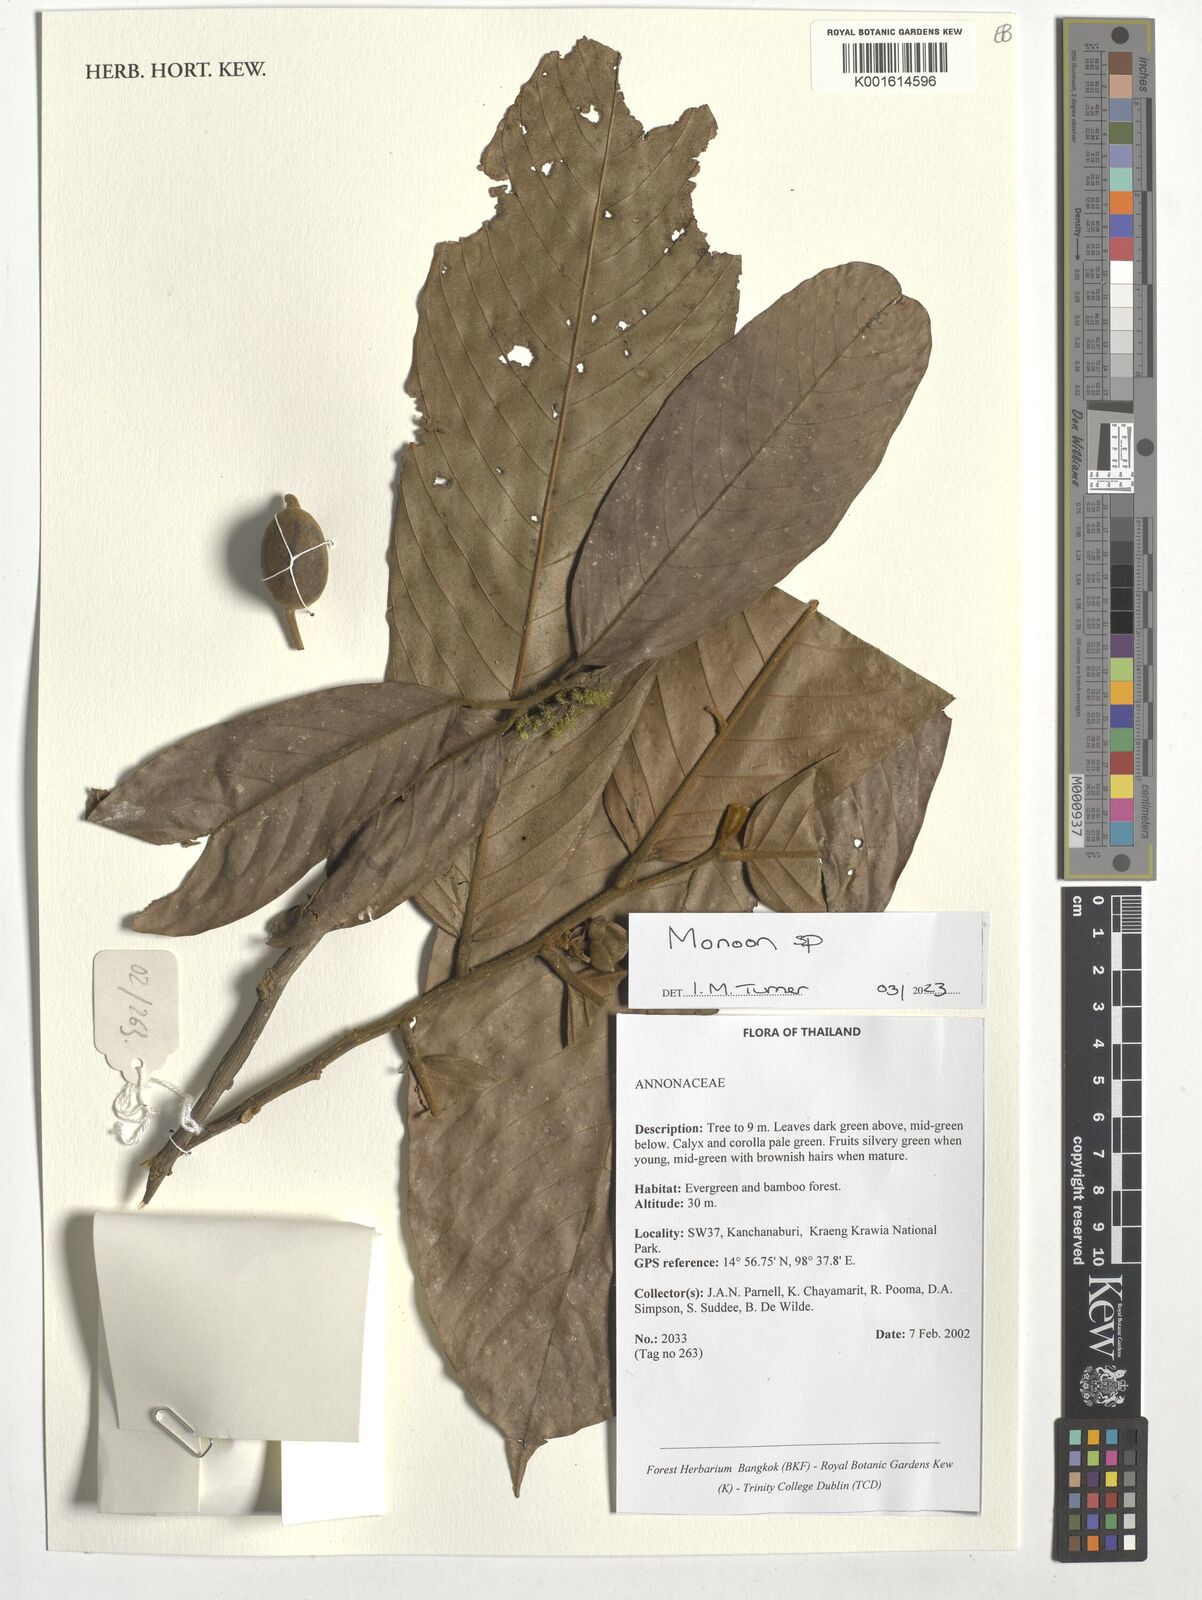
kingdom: Plantae
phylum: Tracheophyta
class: Magnoliopsida
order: Magnoliales
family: Annonaceae
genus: Monoon
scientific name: Monoon
